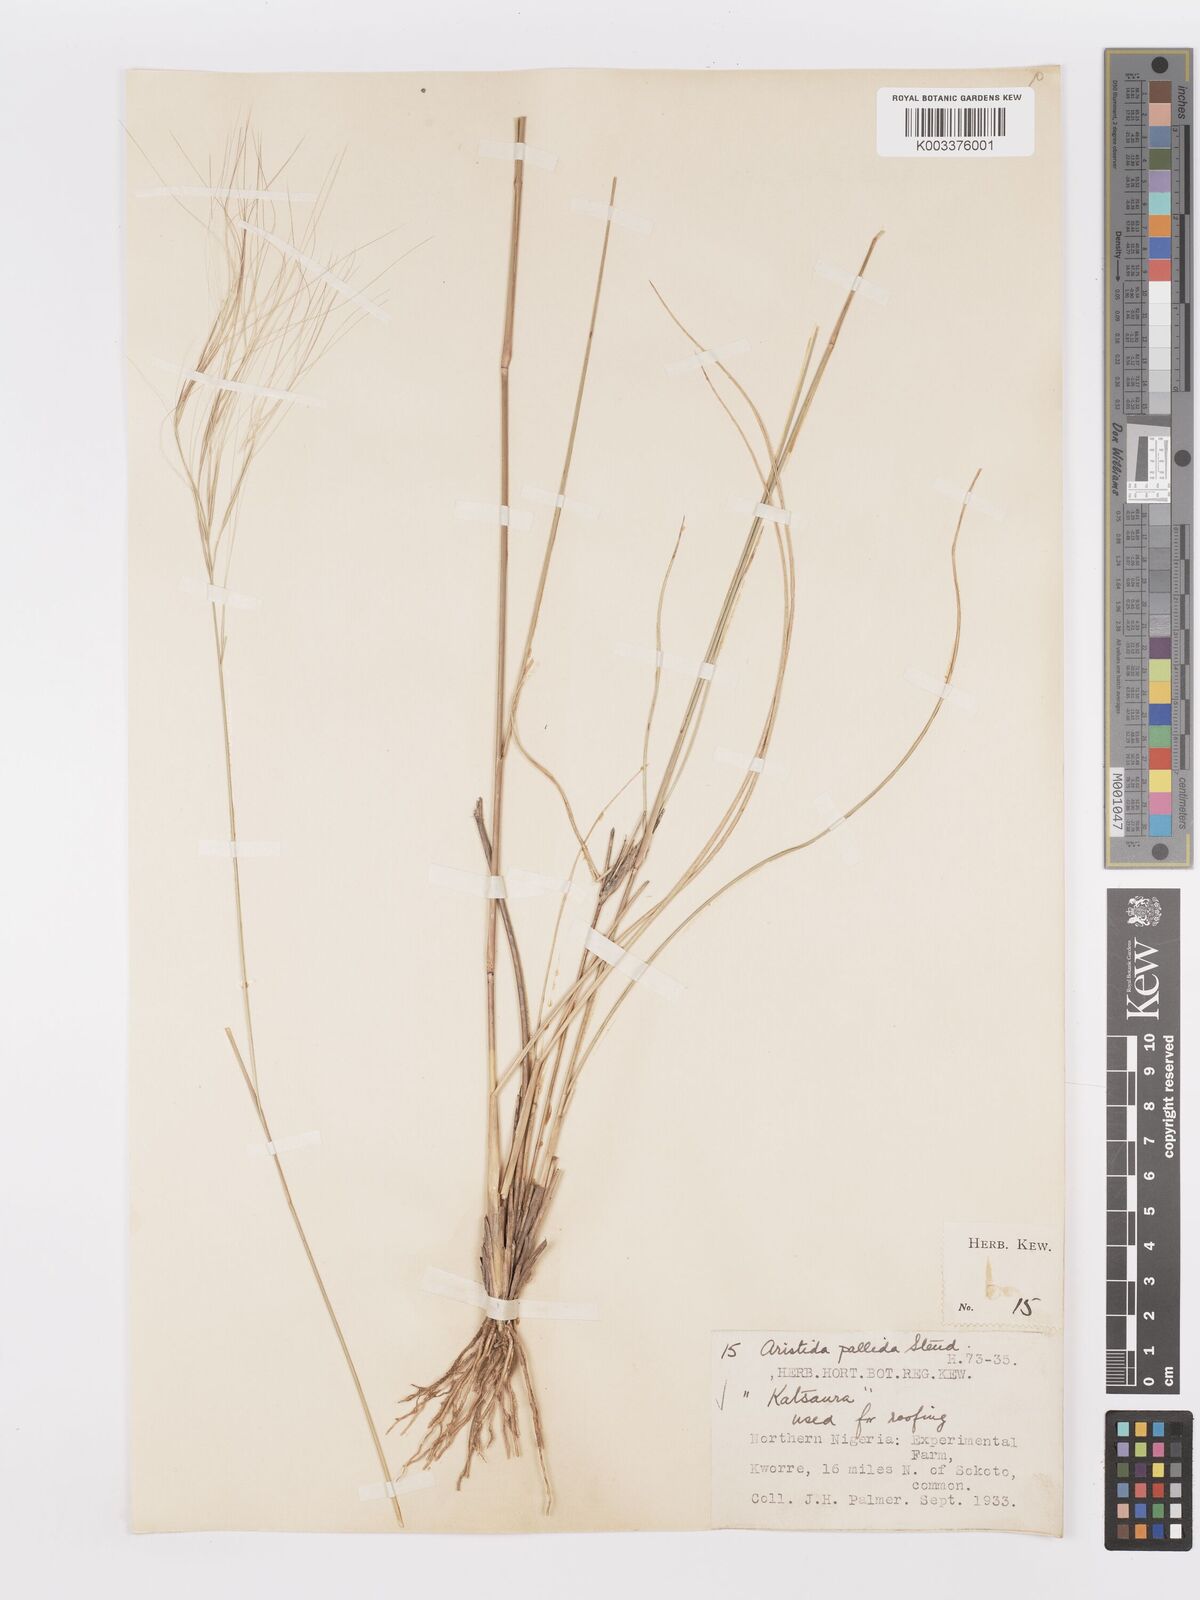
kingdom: Plantae
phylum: Tracheophyta
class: Liliopsida
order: Poales
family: Poaceae
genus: Aristida
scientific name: Aristida sieberiana
